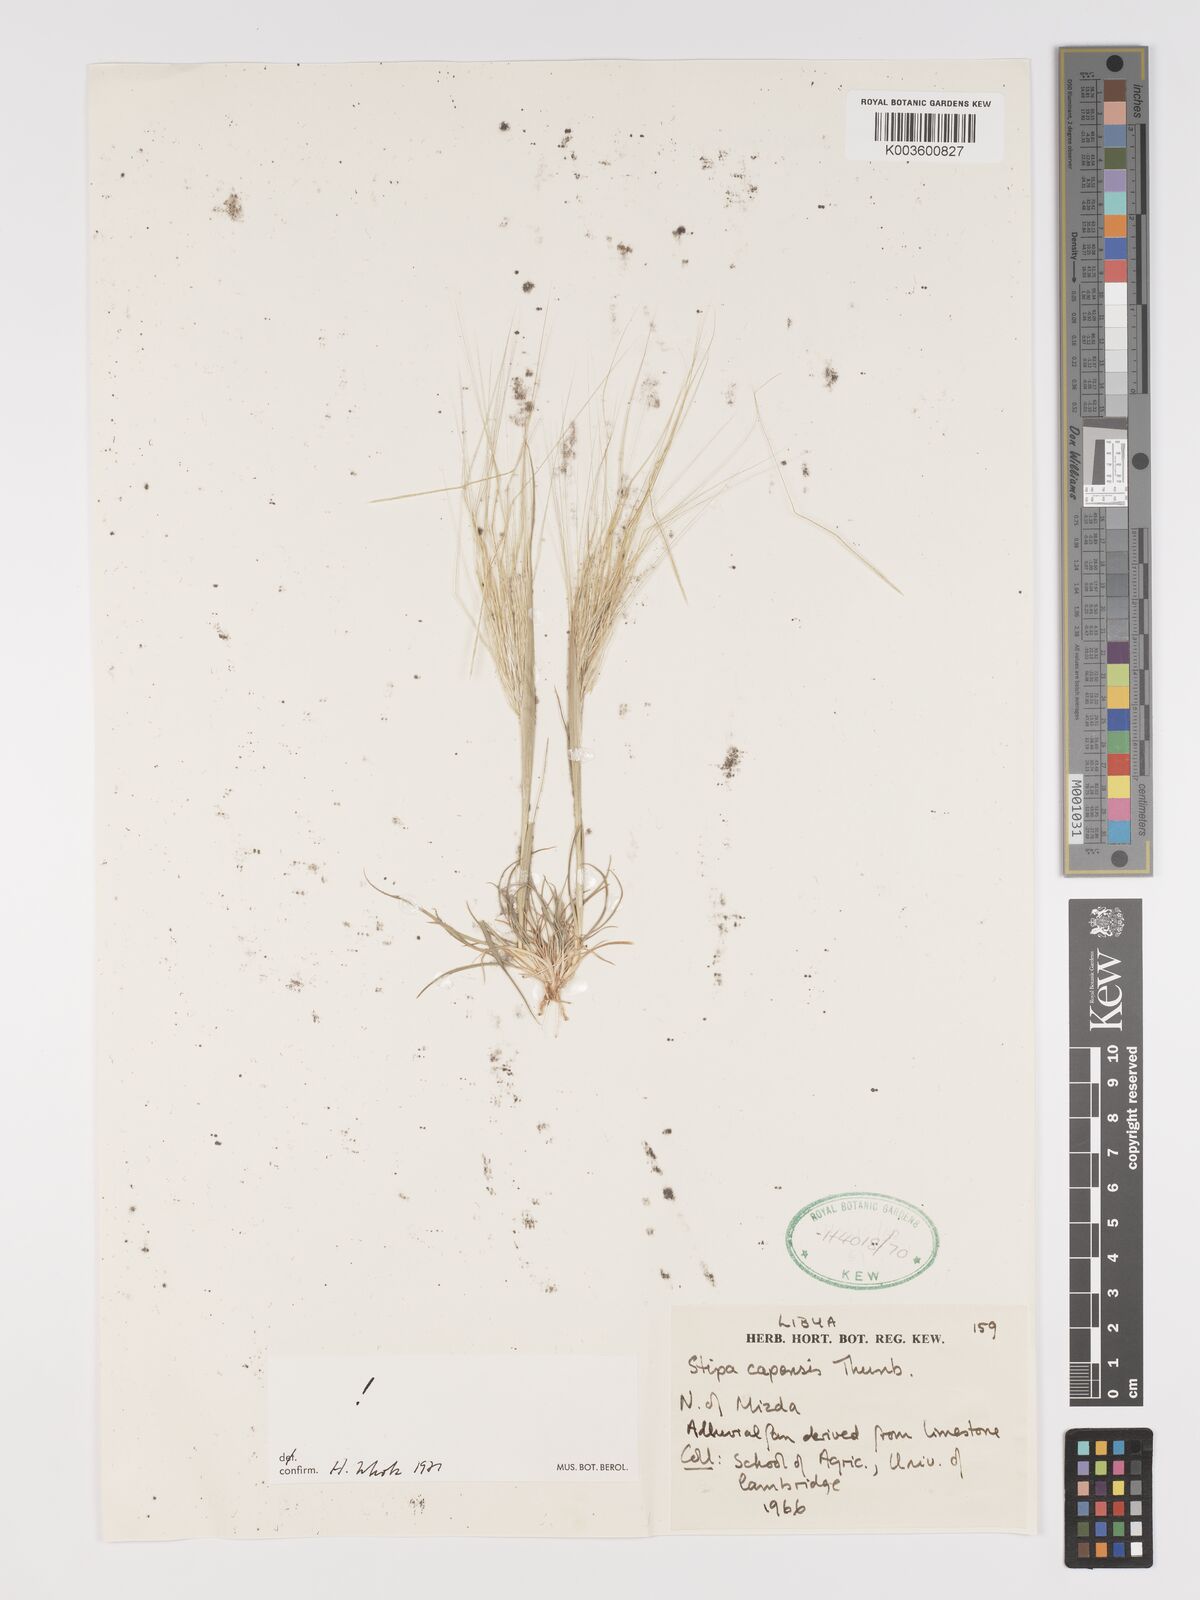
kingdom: Plantae
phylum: Tracheophyta
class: Liliopsida
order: Poales
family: Poaceae
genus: Stipellula
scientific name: Stipellula capensis
